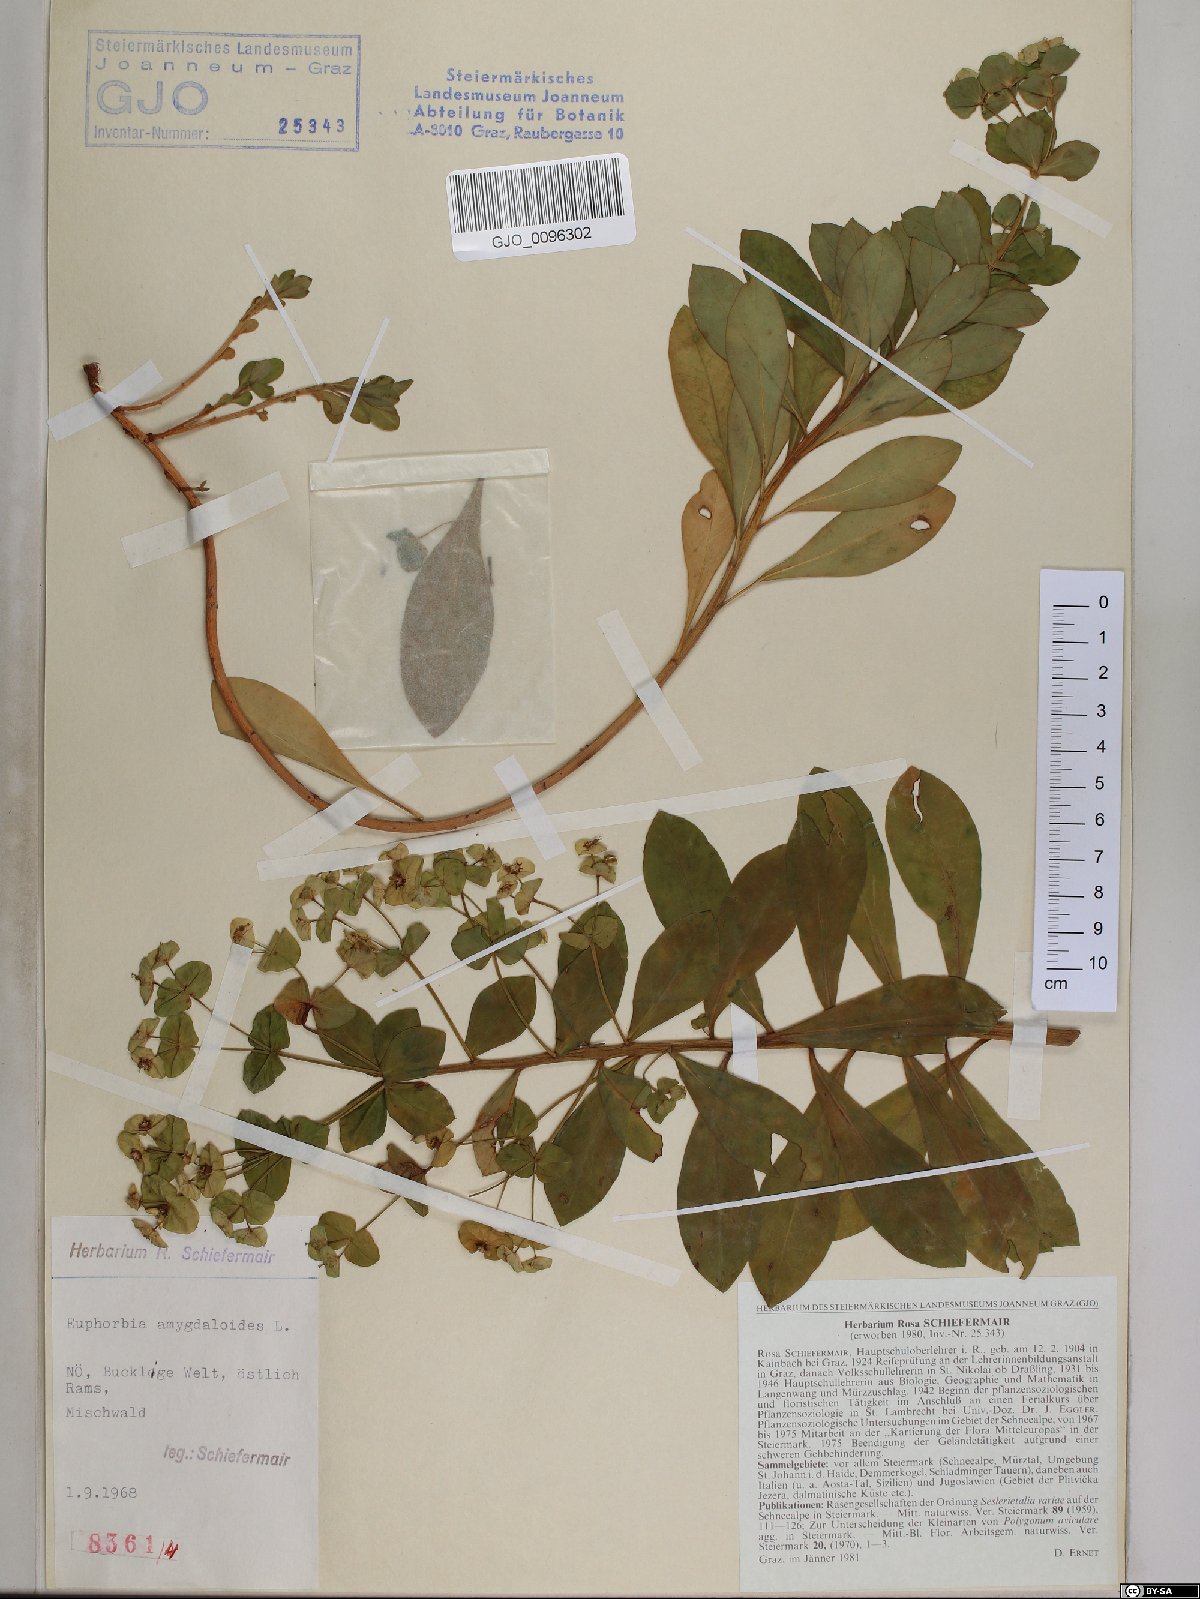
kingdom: Plantae
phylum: Tracheophyta
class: Magnoliopsida
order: Malpighiales
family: Euphorbiaceae
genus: Euphorbia
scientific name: Euphorbia amygdaloides
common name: Wood spurge
